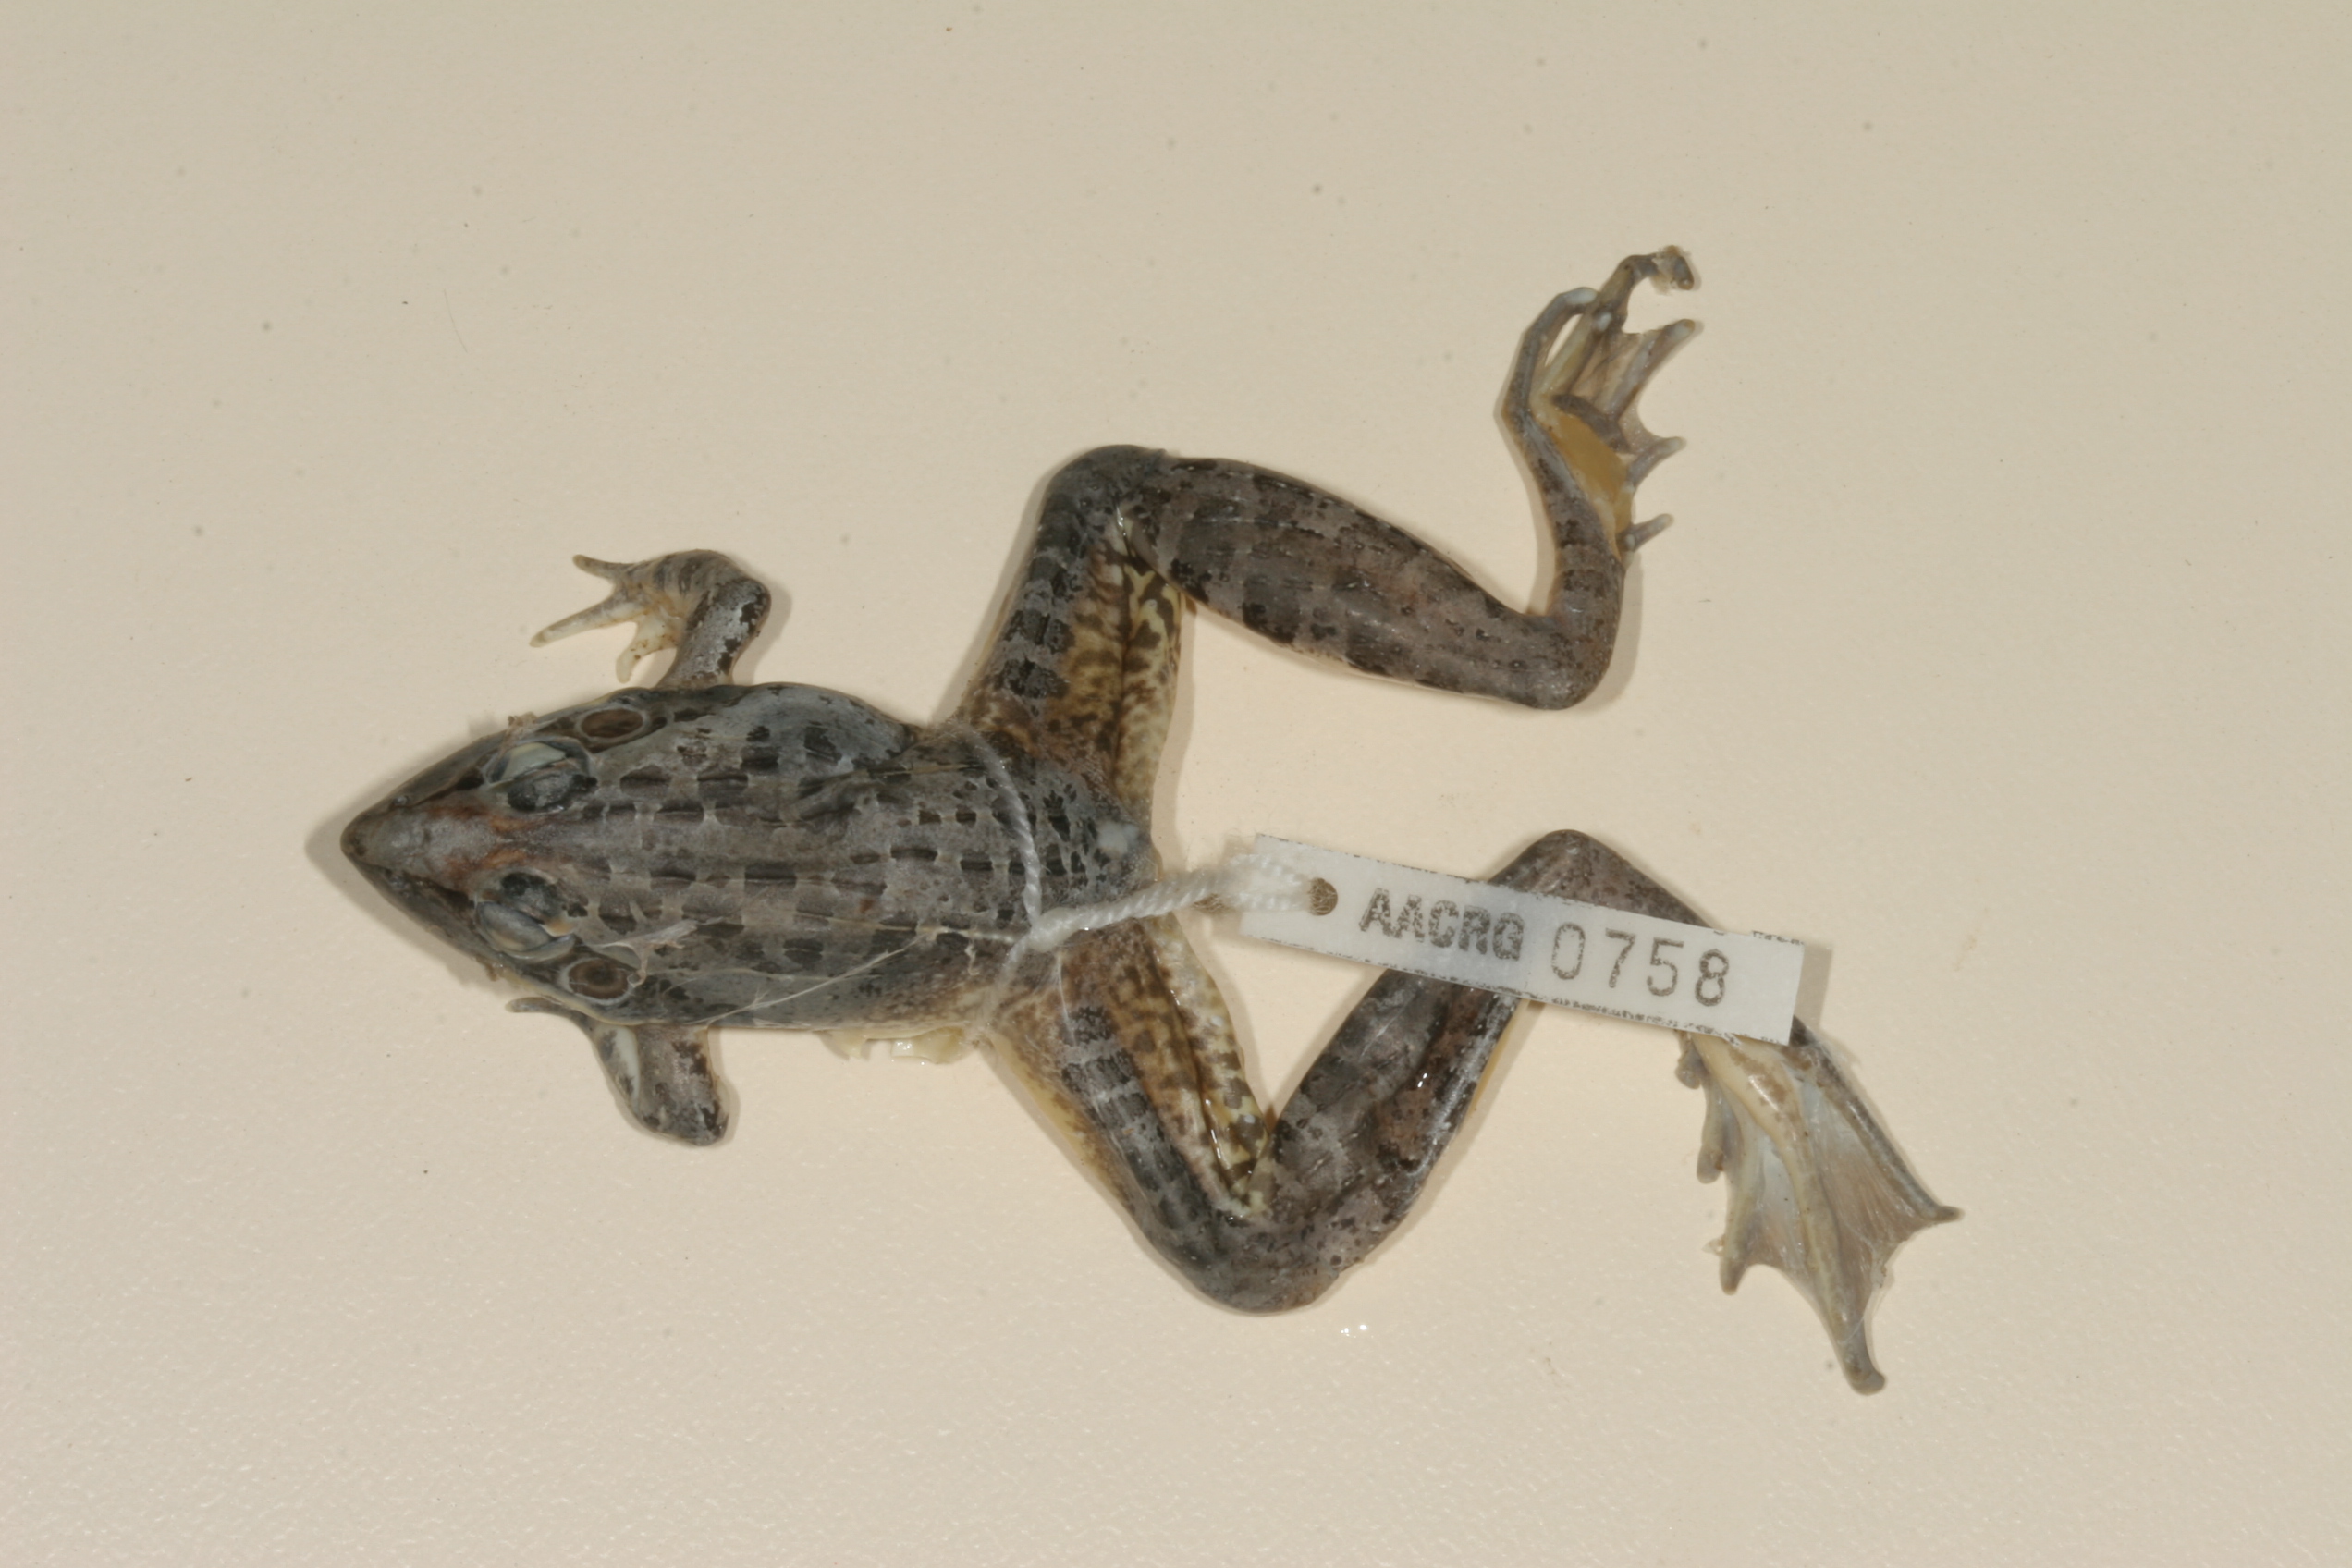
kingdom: Animalia
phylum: Chordata
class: Amphibia
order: Anura
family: Ptychadenidae
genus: Ptychadena
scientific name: Ptychadena oxyrhynchus
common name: Sharp-nosed ridged frog
